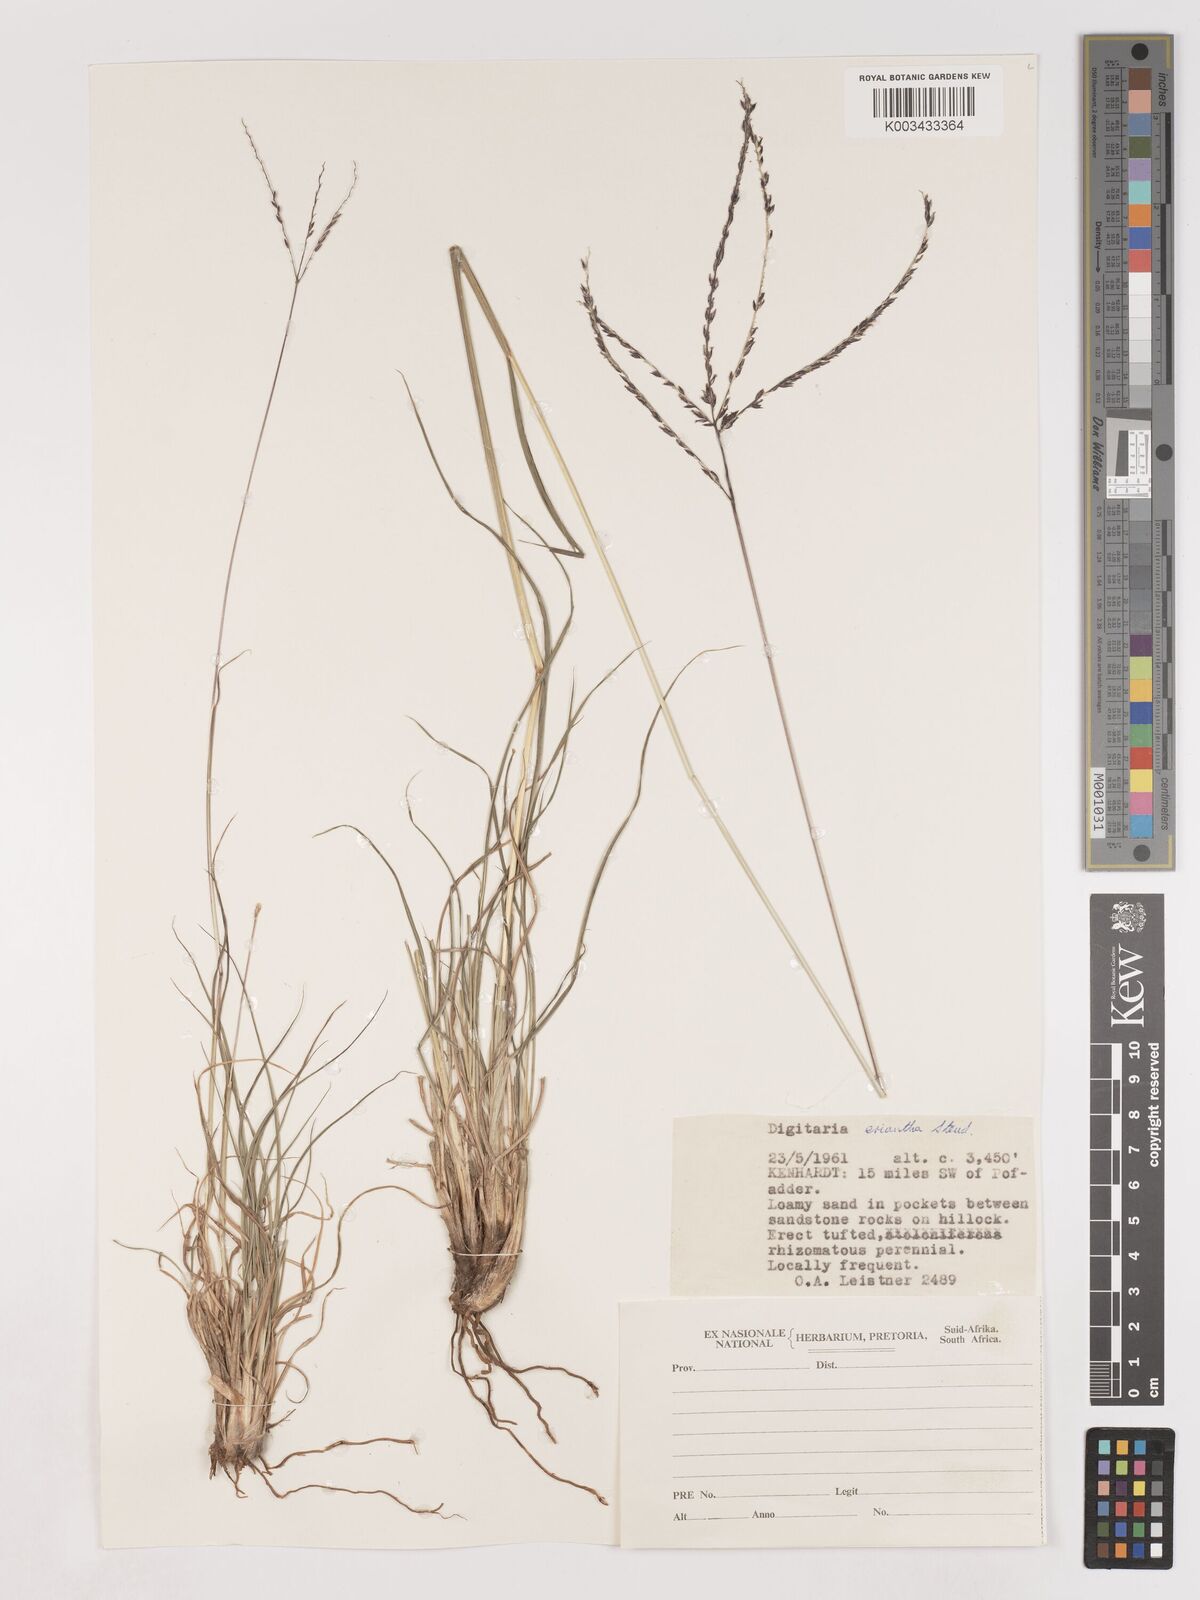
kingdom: Plantae
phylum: Tracheophyta
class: Liliopsida
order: Poales
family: Poaceae
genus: Digitaria
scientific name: Digitaria eriantha
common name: Digitgrass
